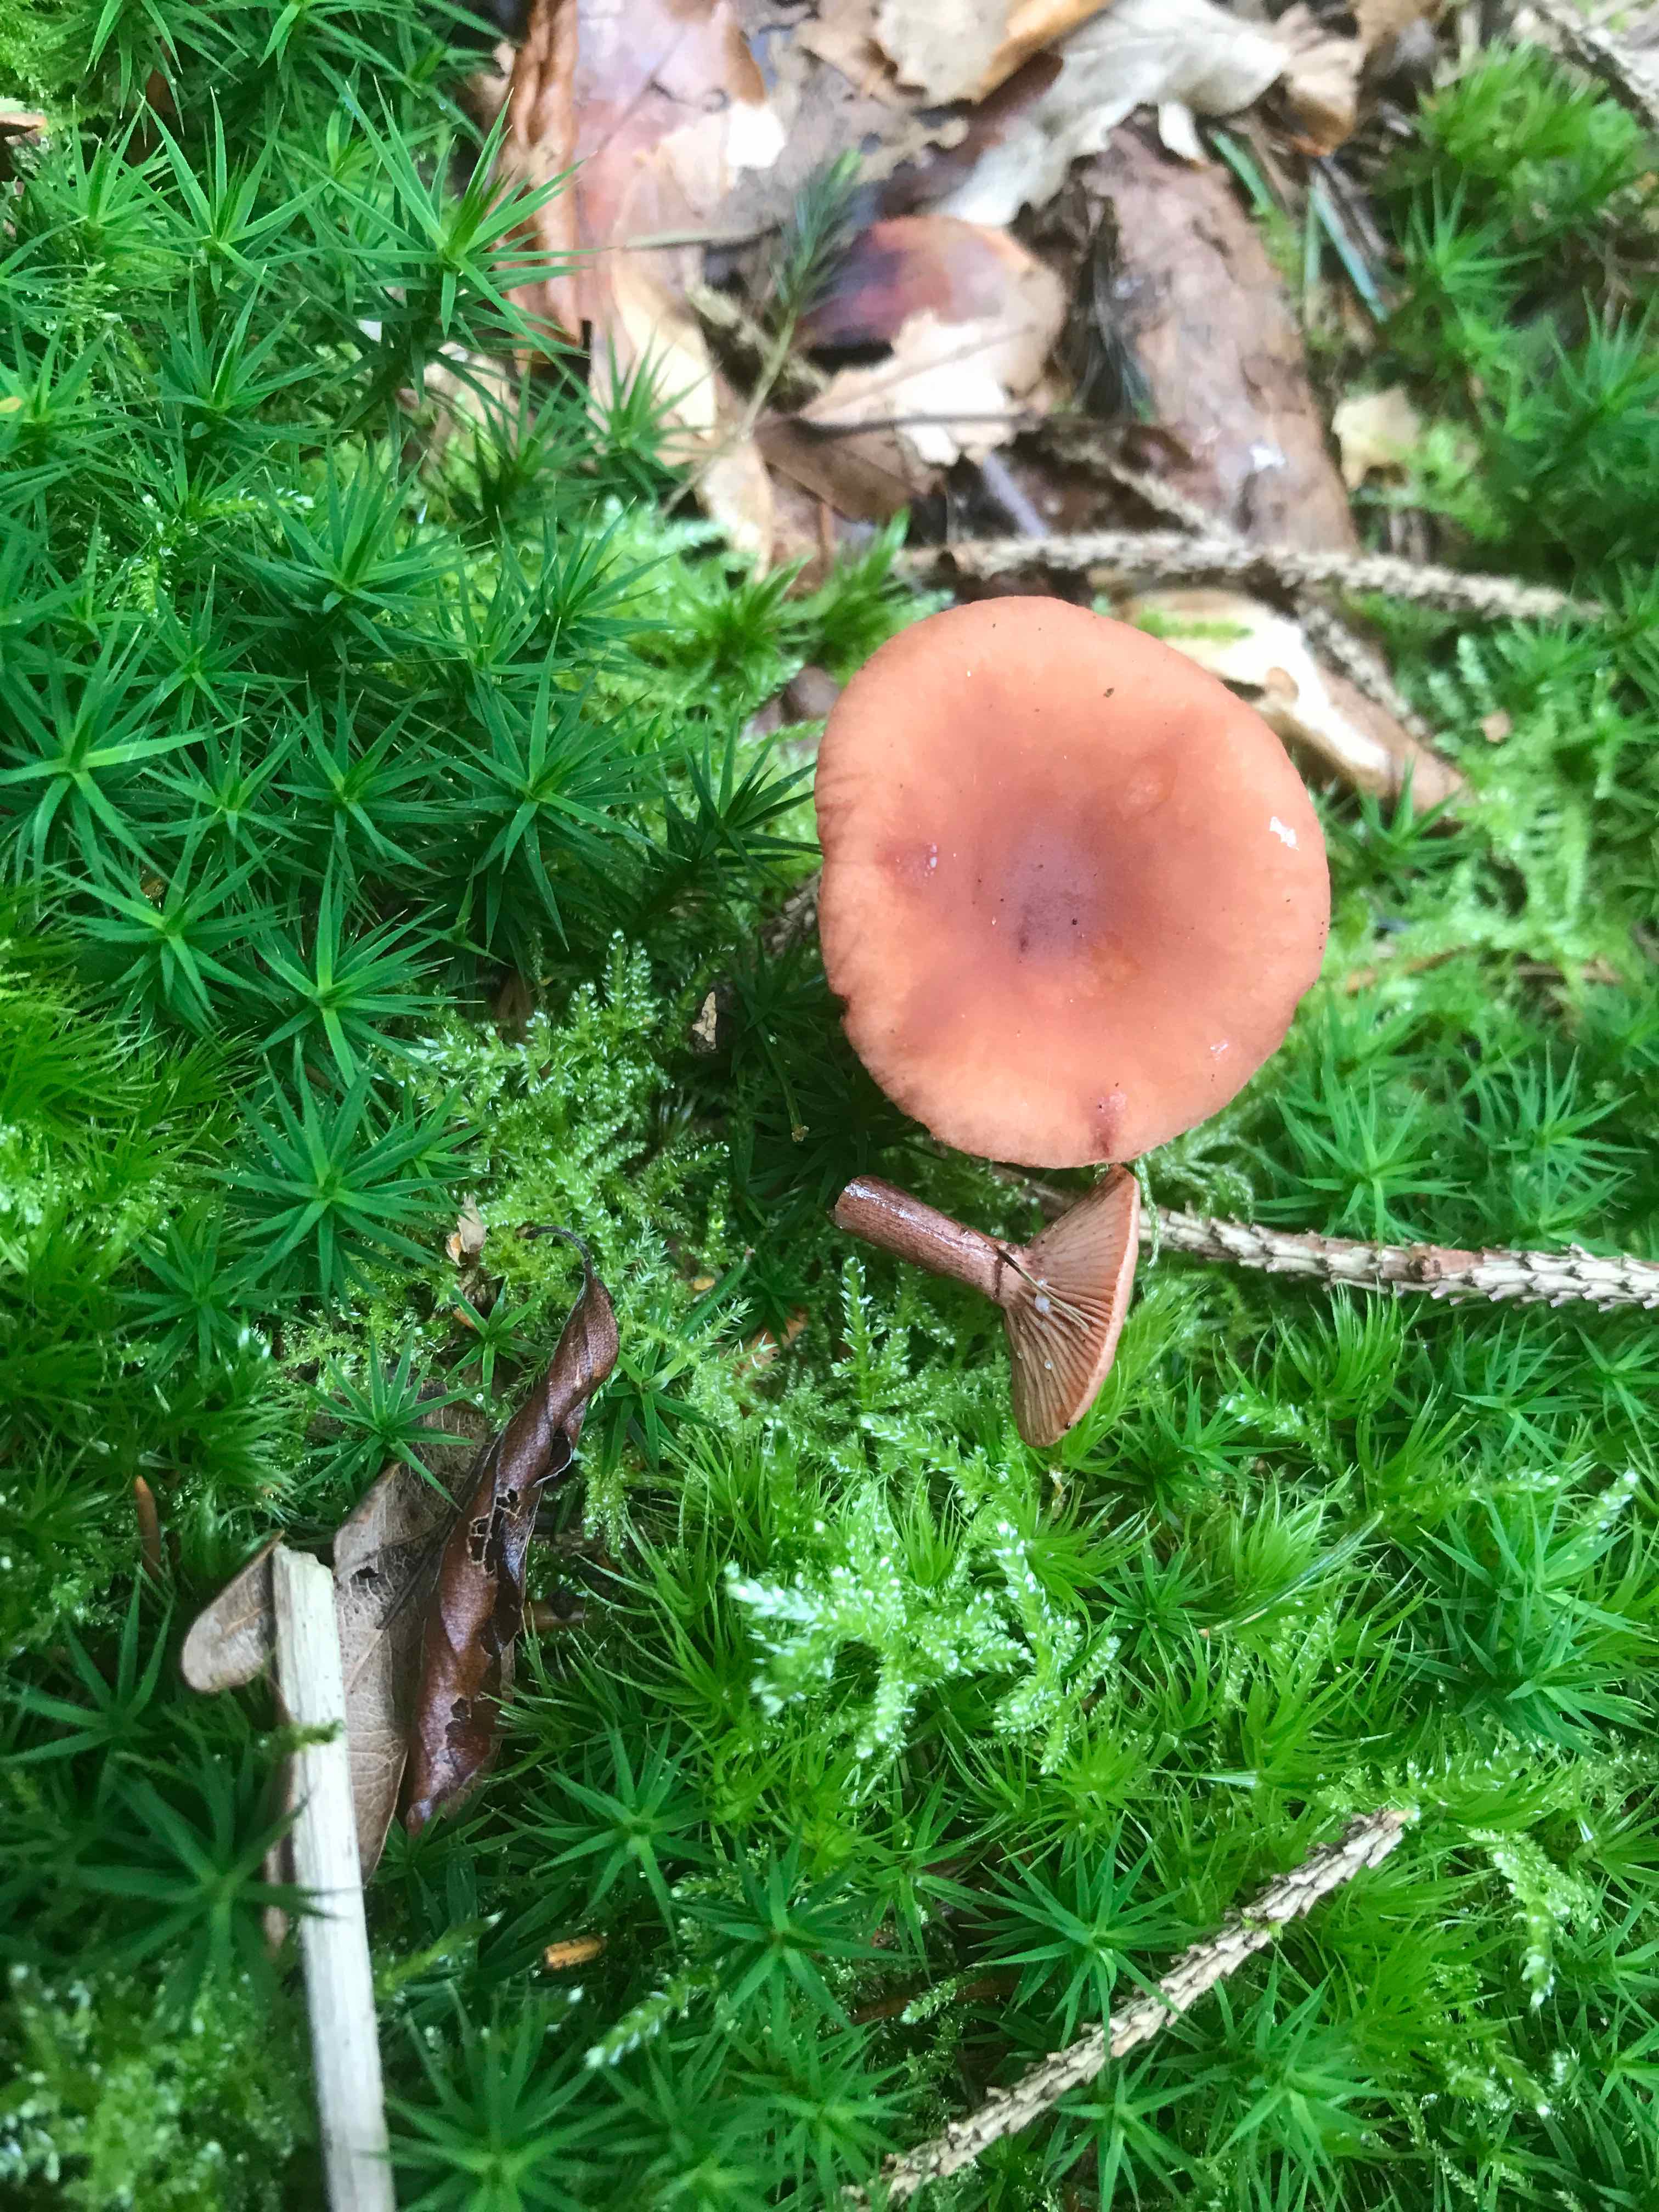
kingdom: Fungi
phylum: Basidiomycota
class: Agaricomycetes
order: Russulales
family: Russulaceae
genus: Lactarius
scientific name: Lactarius camphoratus
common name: kamfer-mælkehat
